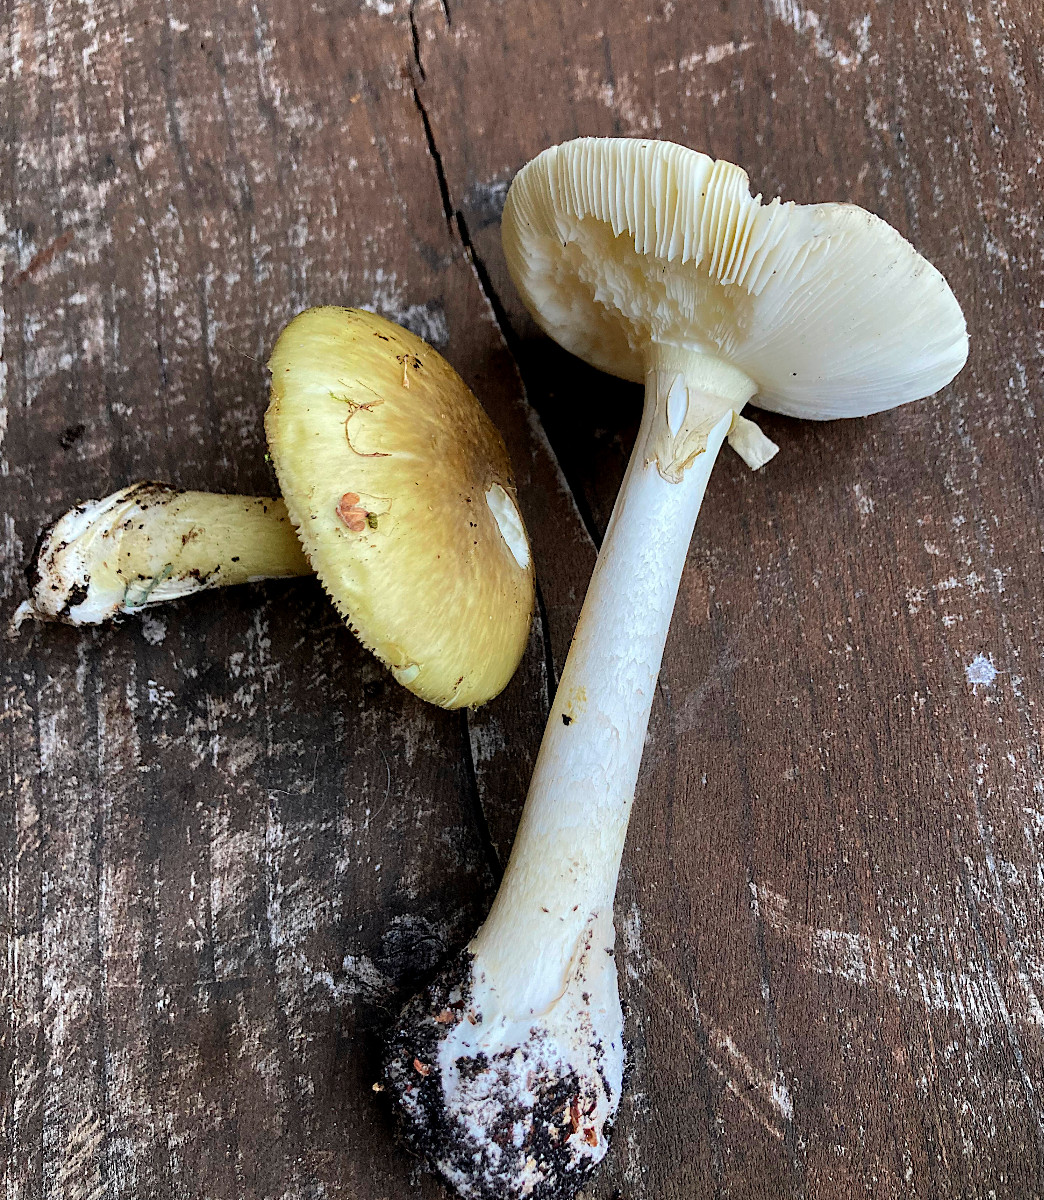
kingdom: Fungi
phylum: Basidiomycota
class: Agaricomycetes
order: Agaricales
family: Amanitaceae
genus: Amanita
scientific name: Amanita phalloides
